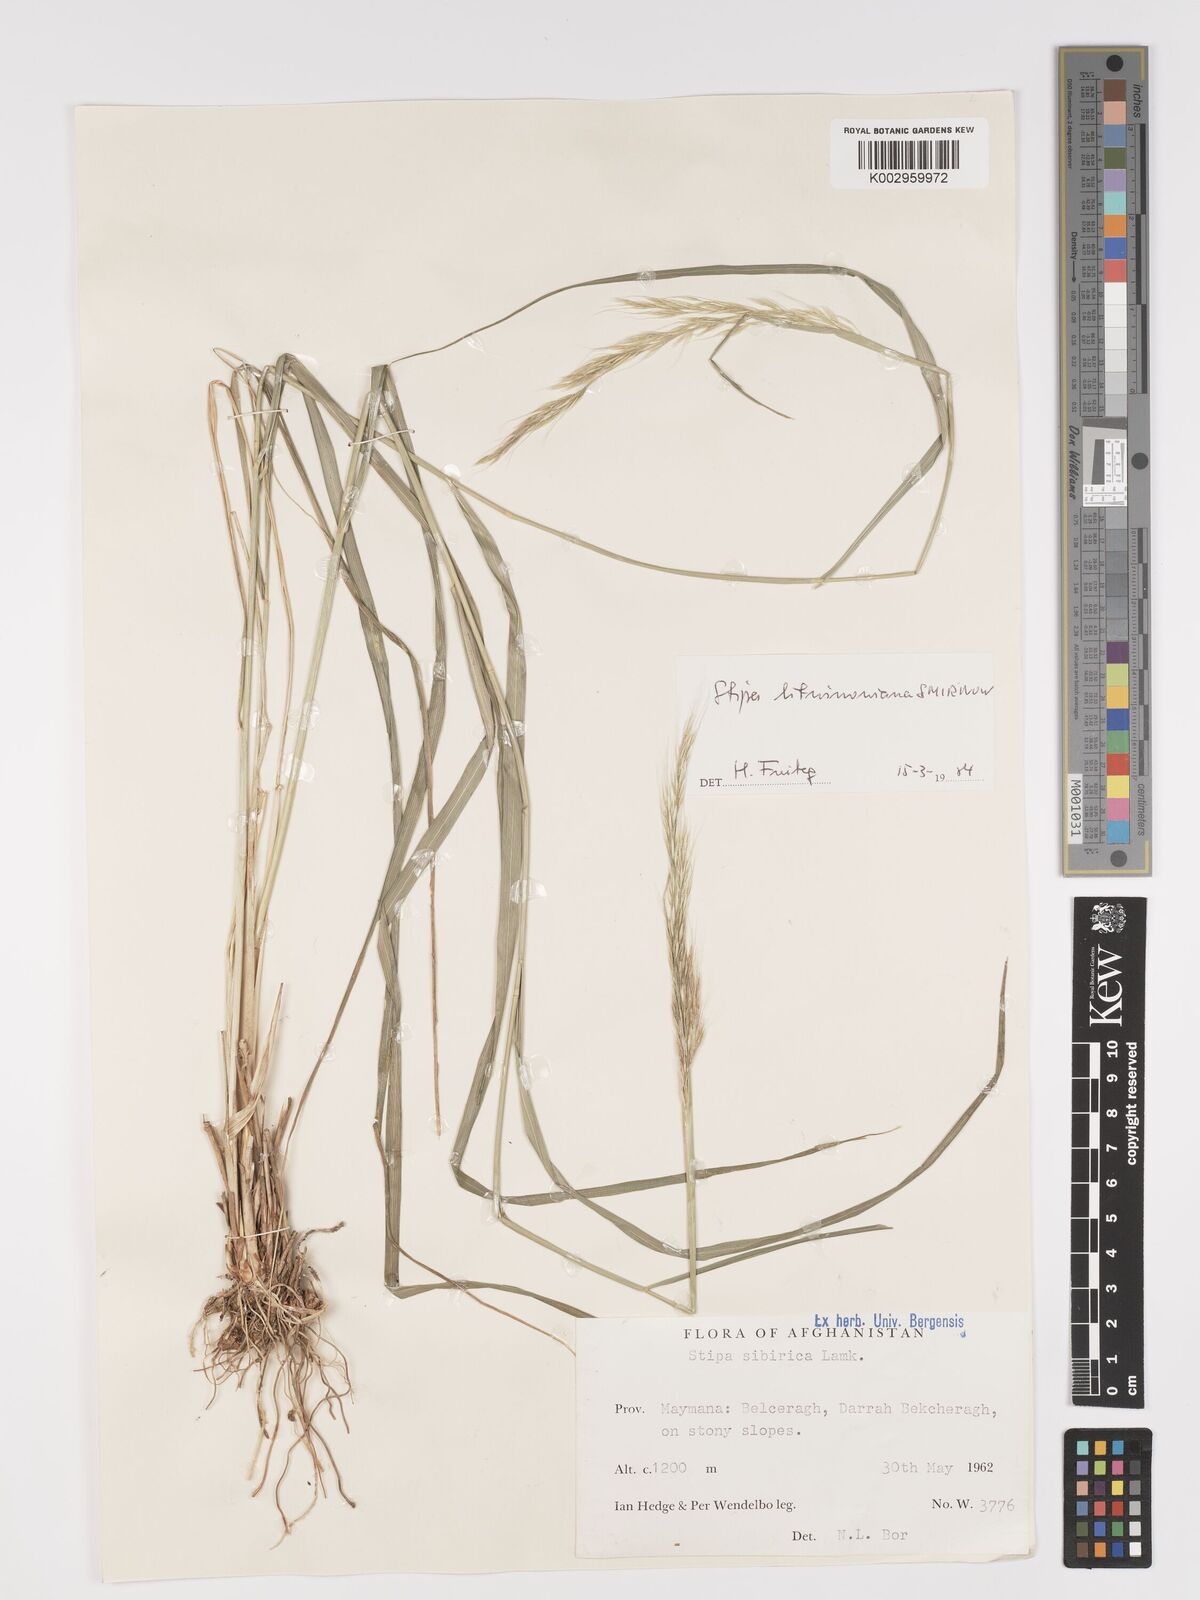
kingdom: Plantae
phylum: Tracheophyta
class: Liliopsida
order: Poales
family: Poaceae
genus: Achnatherum
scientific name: Achnatherum turcomanicum
